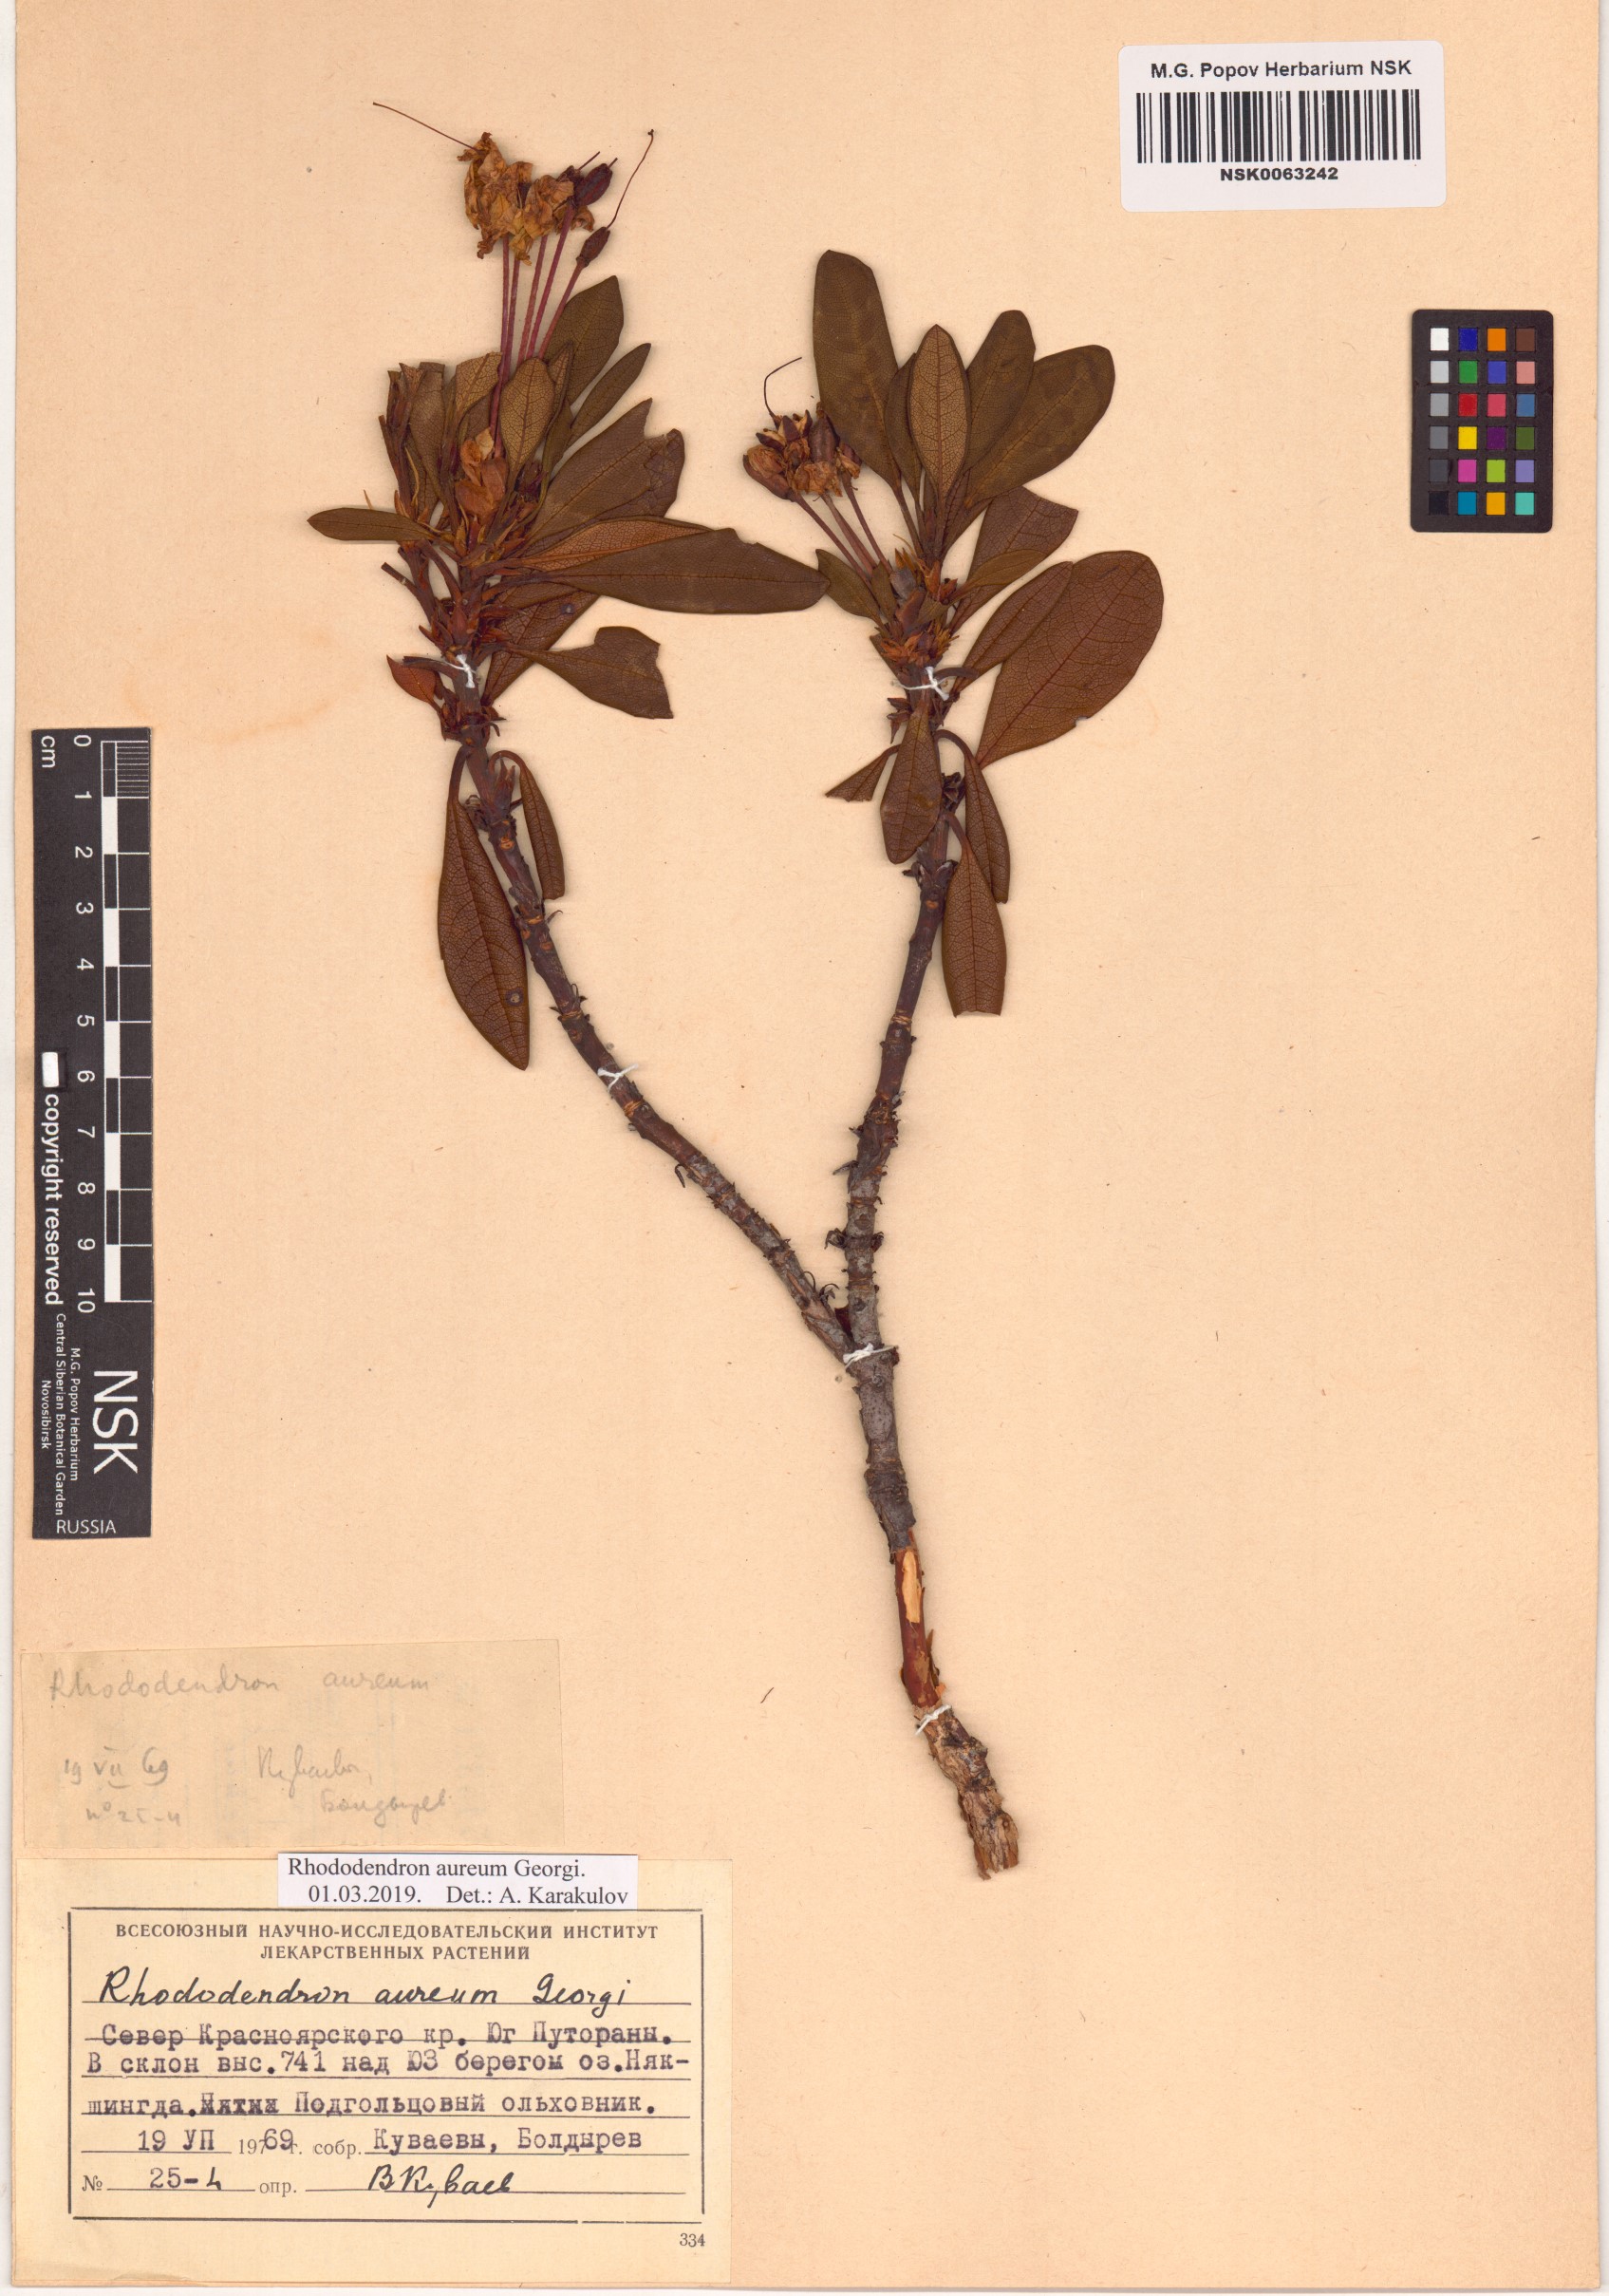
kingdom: Plantae
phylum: Tracheophyta
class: Magnoliopsida
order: Ericales
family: Ericaceae
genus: Rhododendron
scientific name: Rhododendron aureum
